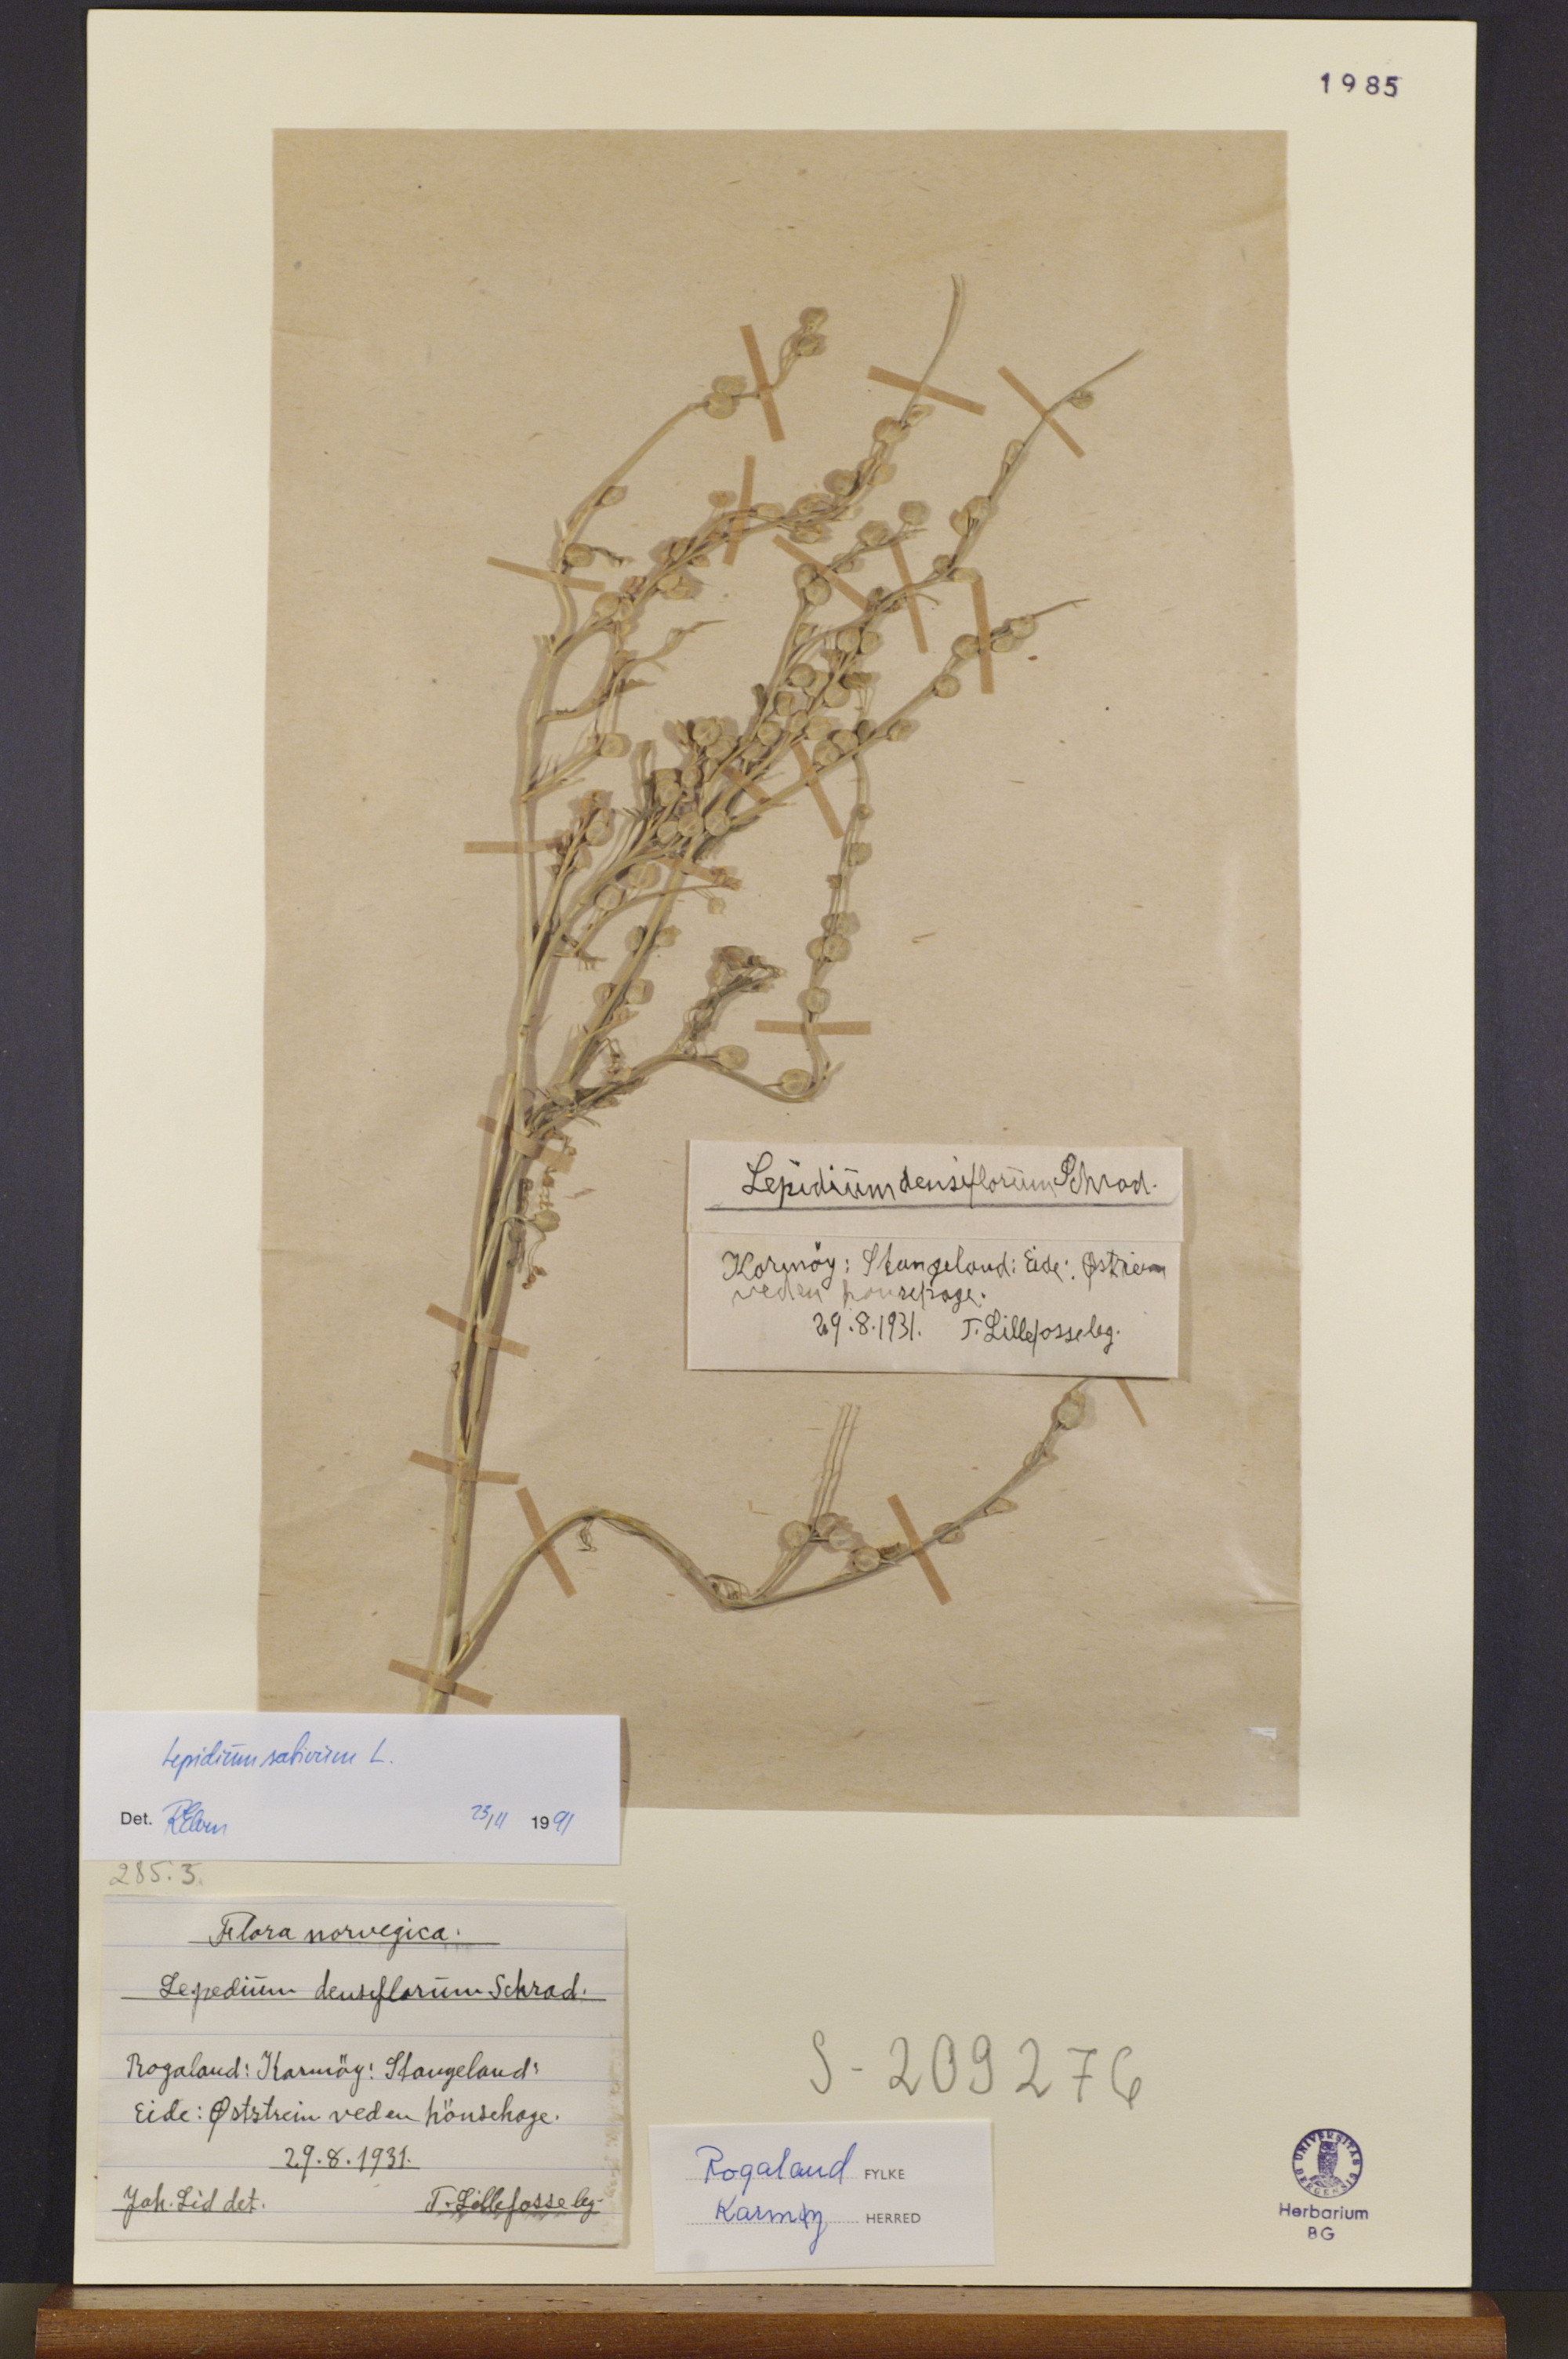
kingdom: Plantae
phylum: Tracheophyta
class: Magnoliopsida
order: Brassicales
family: Brassicaceae
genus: Lepidium
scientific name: Lepidium sativum
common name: Garden cress
